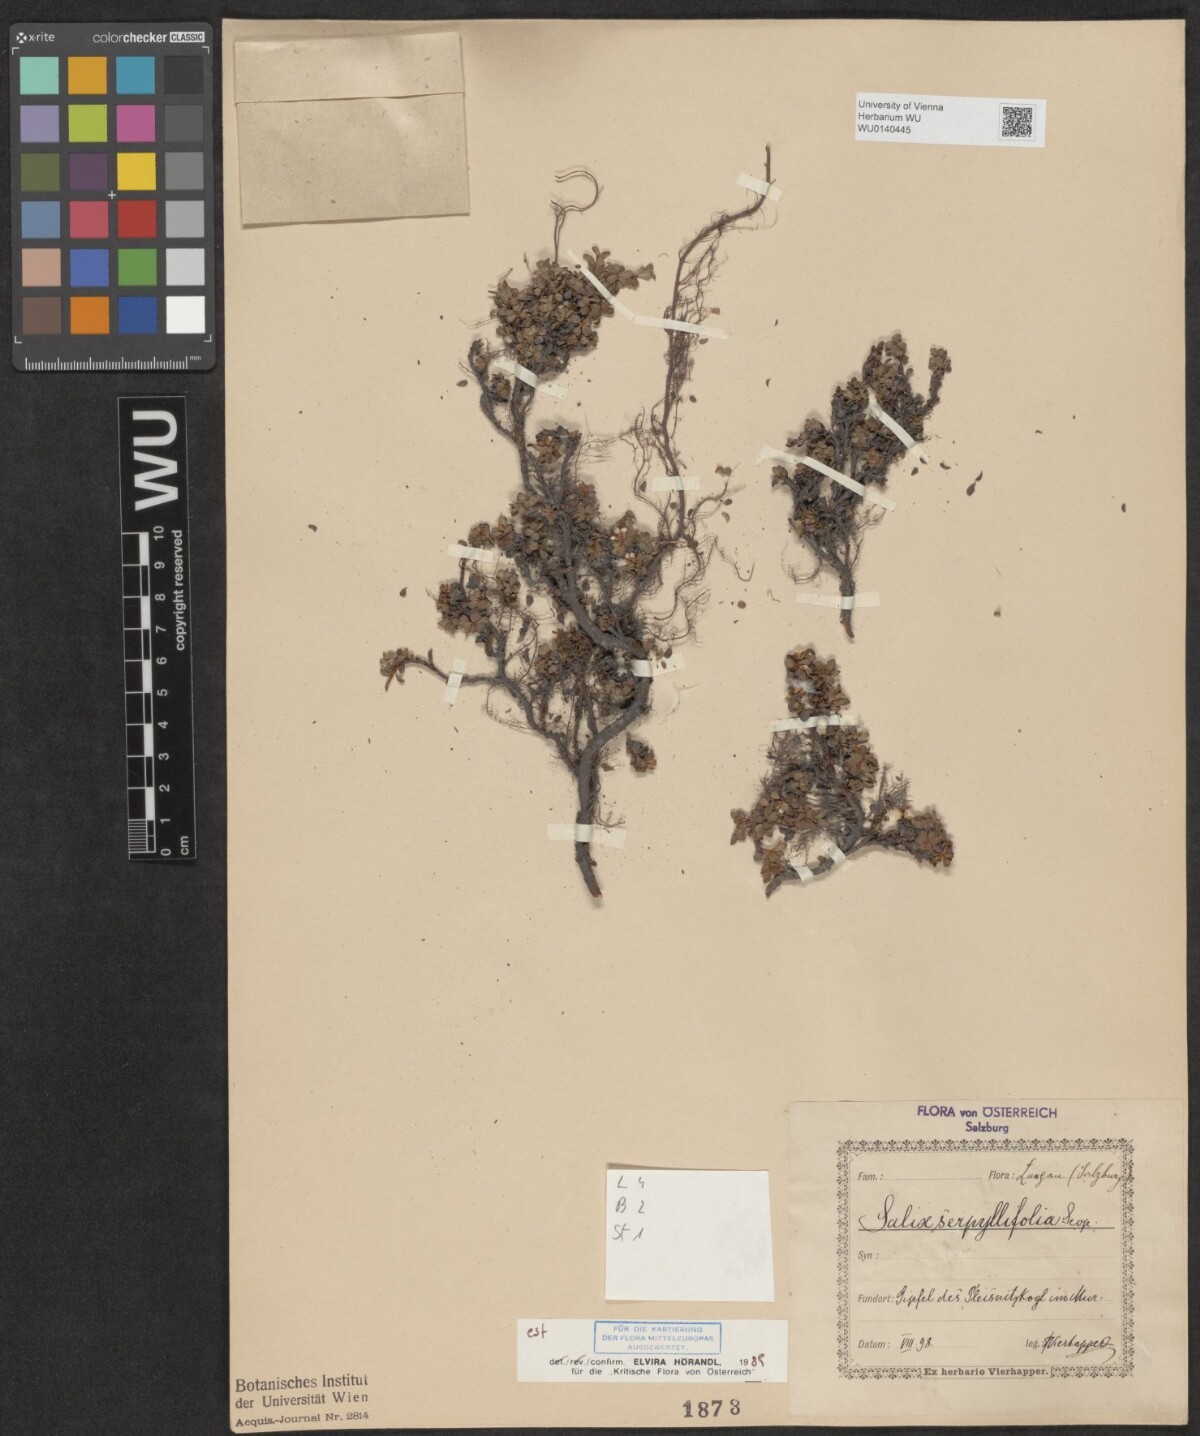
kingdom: Plantae
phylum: Tracheophyta
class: Magnoliopsida
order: Malpighiales
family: Salicaceae
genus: Salix
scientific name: Salix serpillifolia
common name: Thyme-leaf willow
